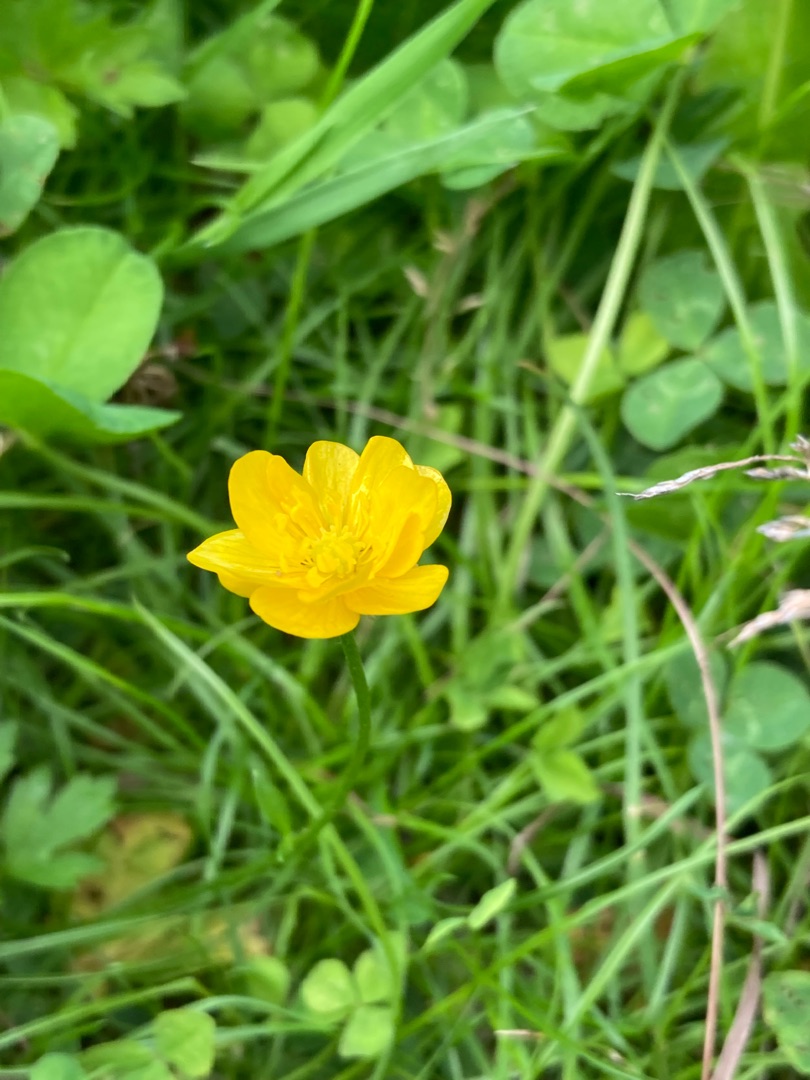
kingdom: Plantae
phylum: Tracheophyta
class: Magnoliopsida
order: Ranunculales
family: Ranunculaceae
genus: Ranunculus
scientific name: Ranunculus repens
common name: Lav ranunkel
